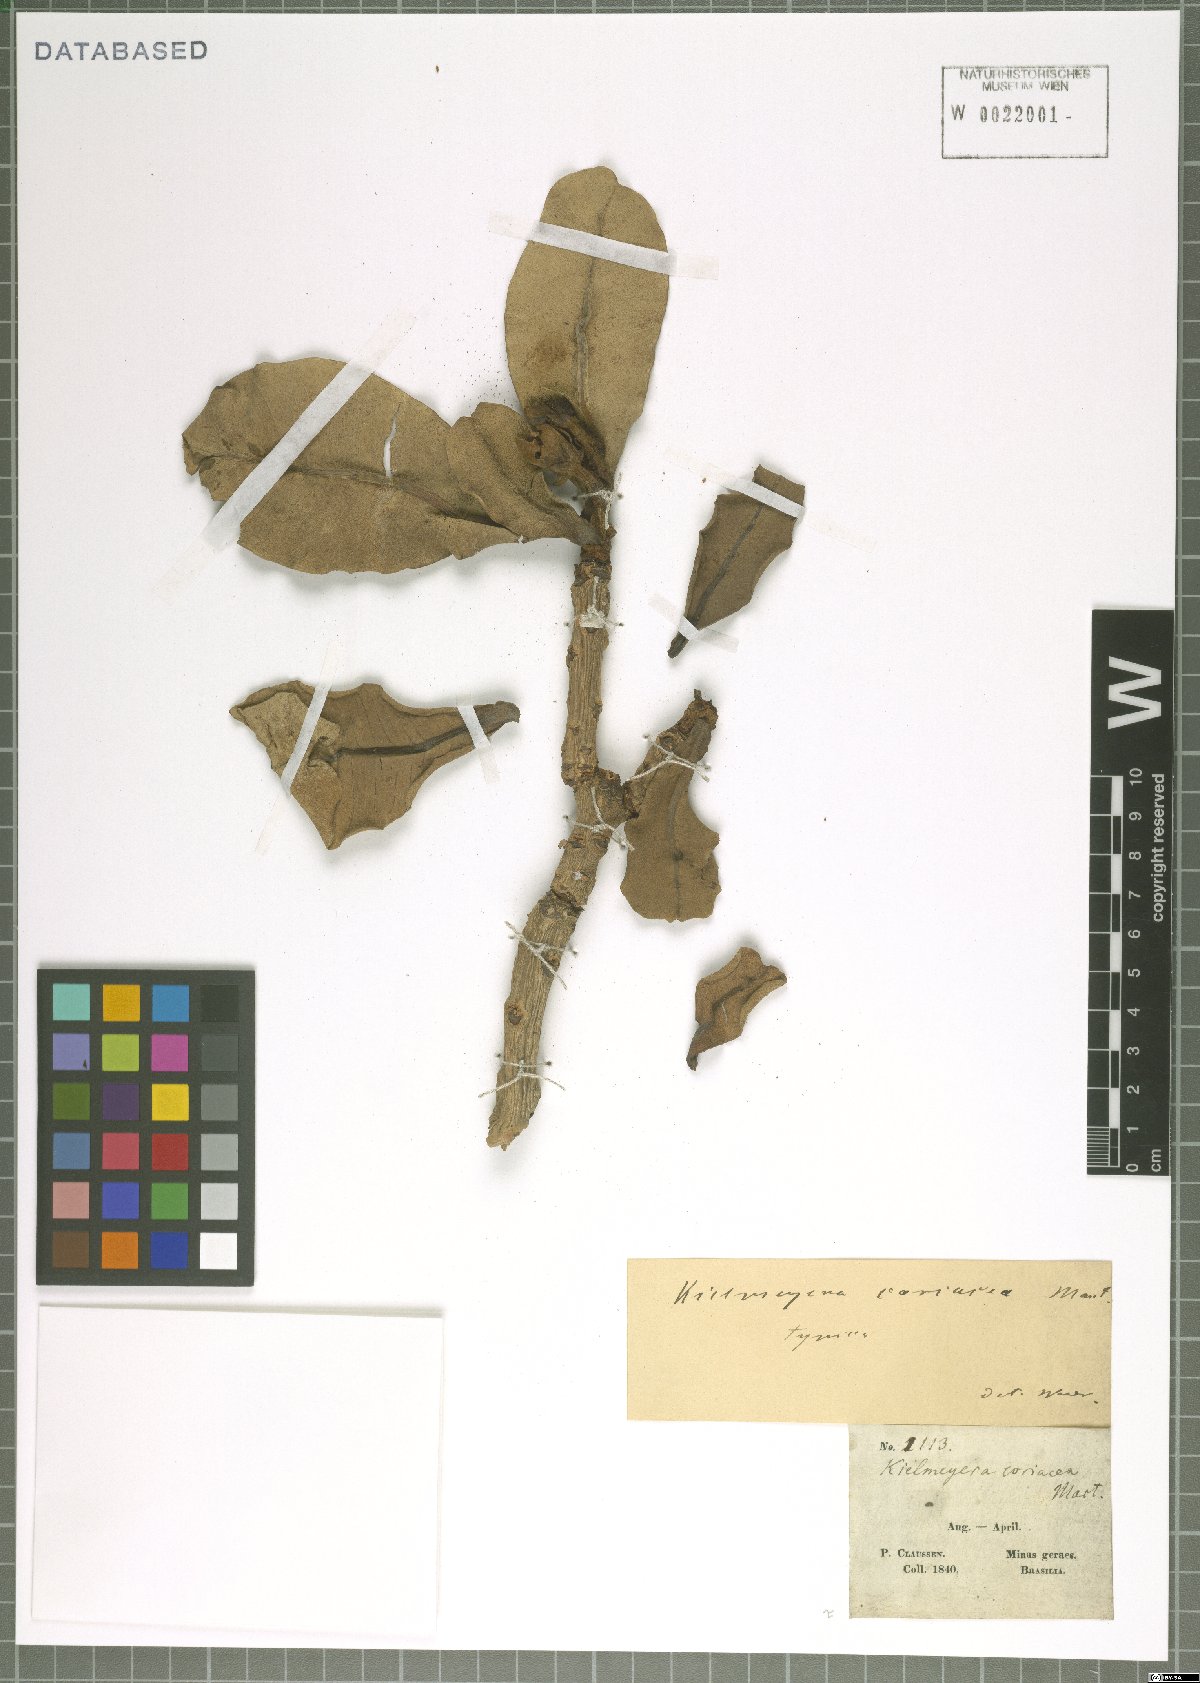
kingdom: Plantae
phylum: Tracheophyta
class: Magnoliopsida
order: Malpighiales
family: Calophyllaceae
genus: Kielmeyera
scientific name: Kielmeyera coriacea
